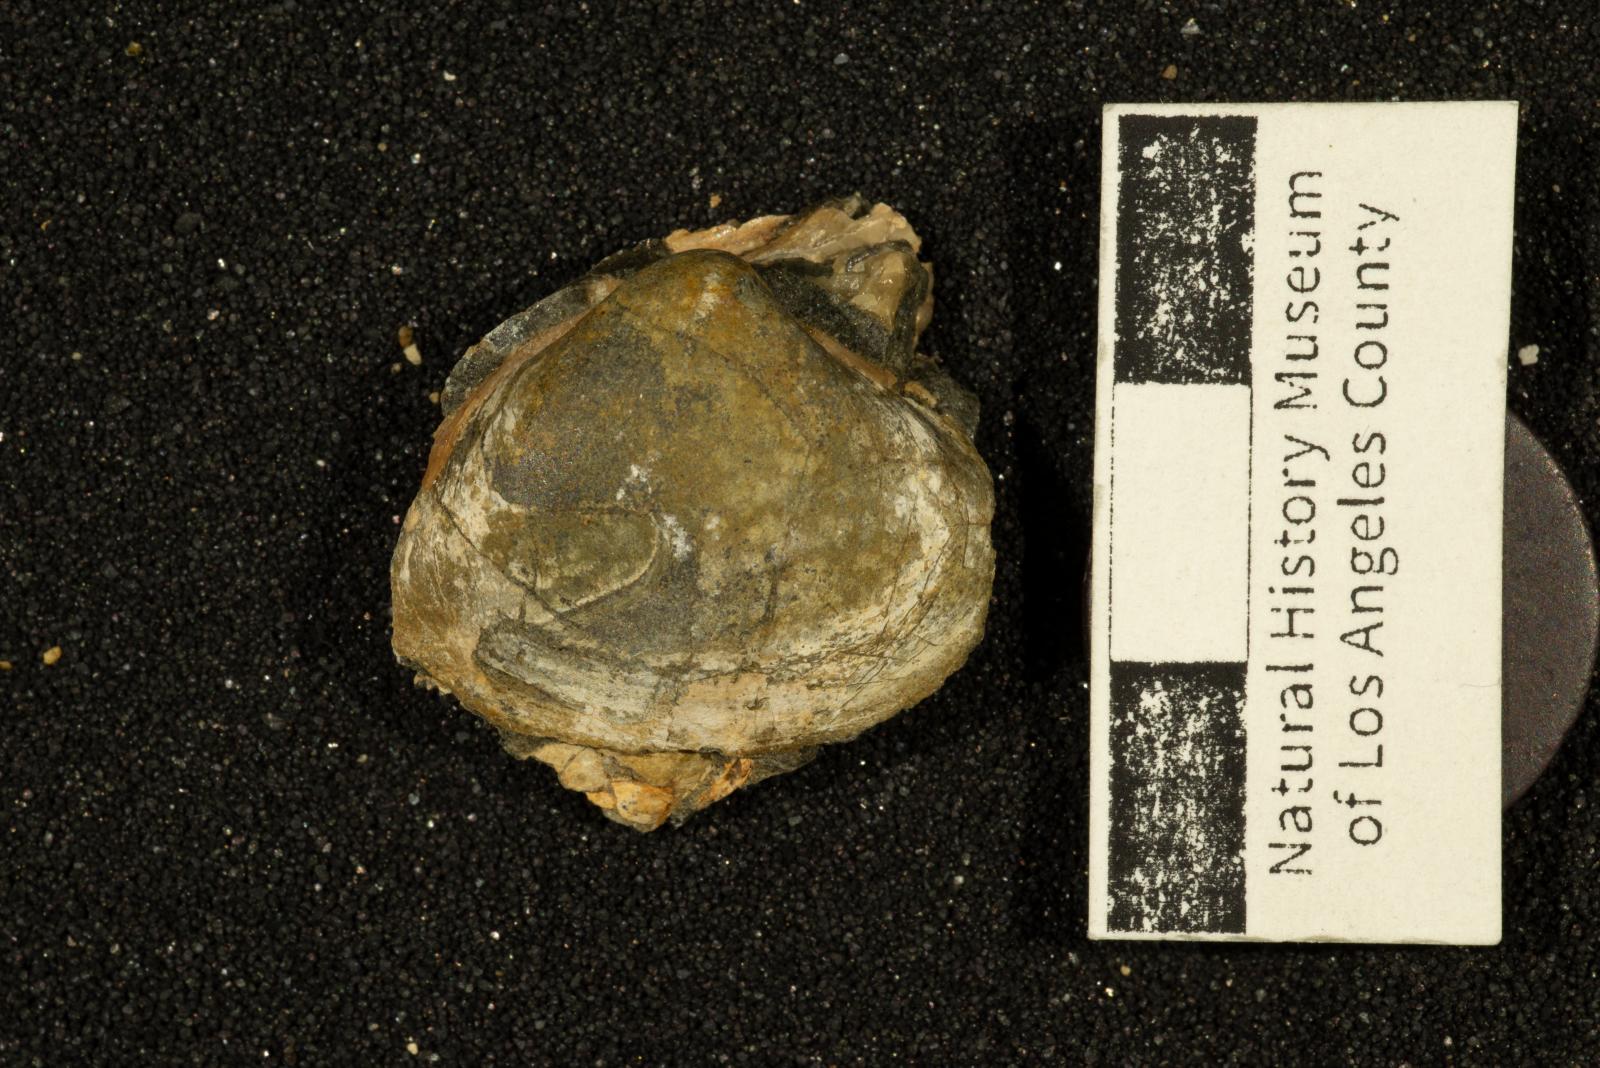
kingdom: Animalia
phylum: Mollusca
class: Bivalvia
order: Venerida
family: Mactridae
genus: Cymbophora
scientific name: Cymbophora
